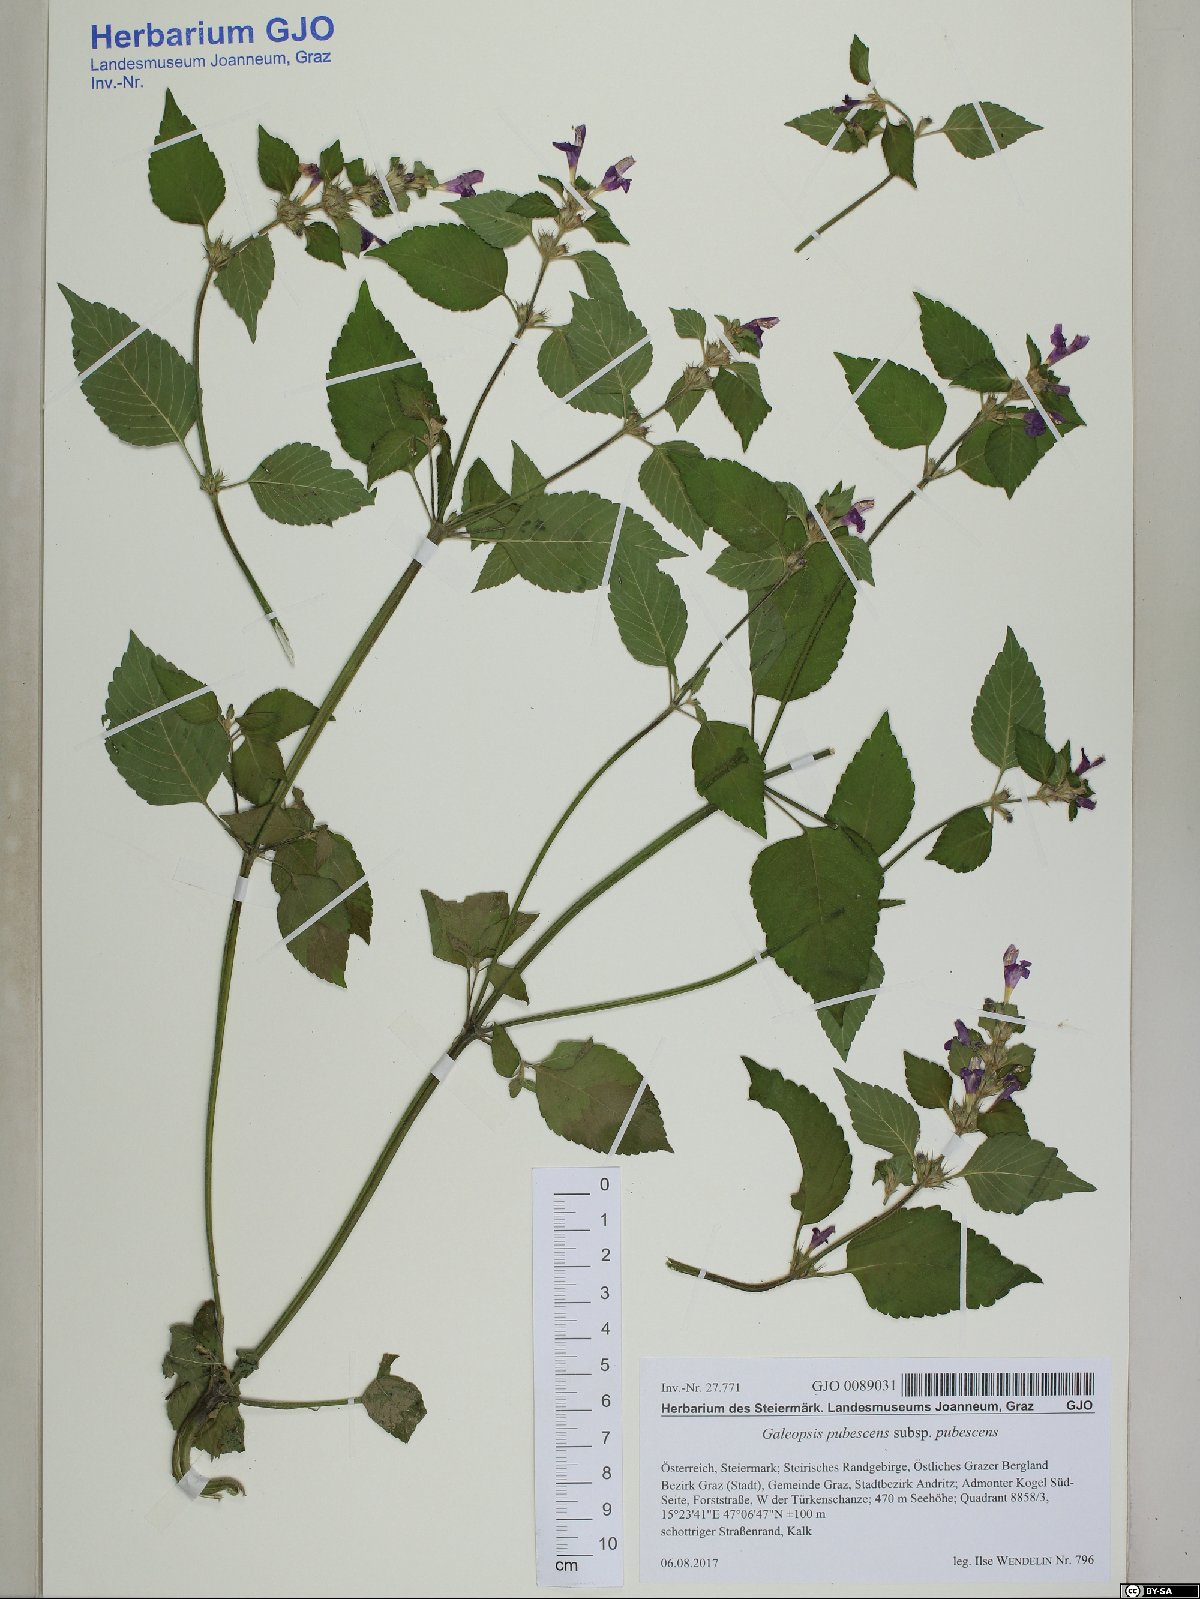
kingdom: Plantae
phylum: Tracheophyta
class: Magnoliopsida
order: Lamiales
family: Lamiaceae
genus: Galeopsis
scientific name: Galeopsis pubescens
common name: Downy hemp-nettle
